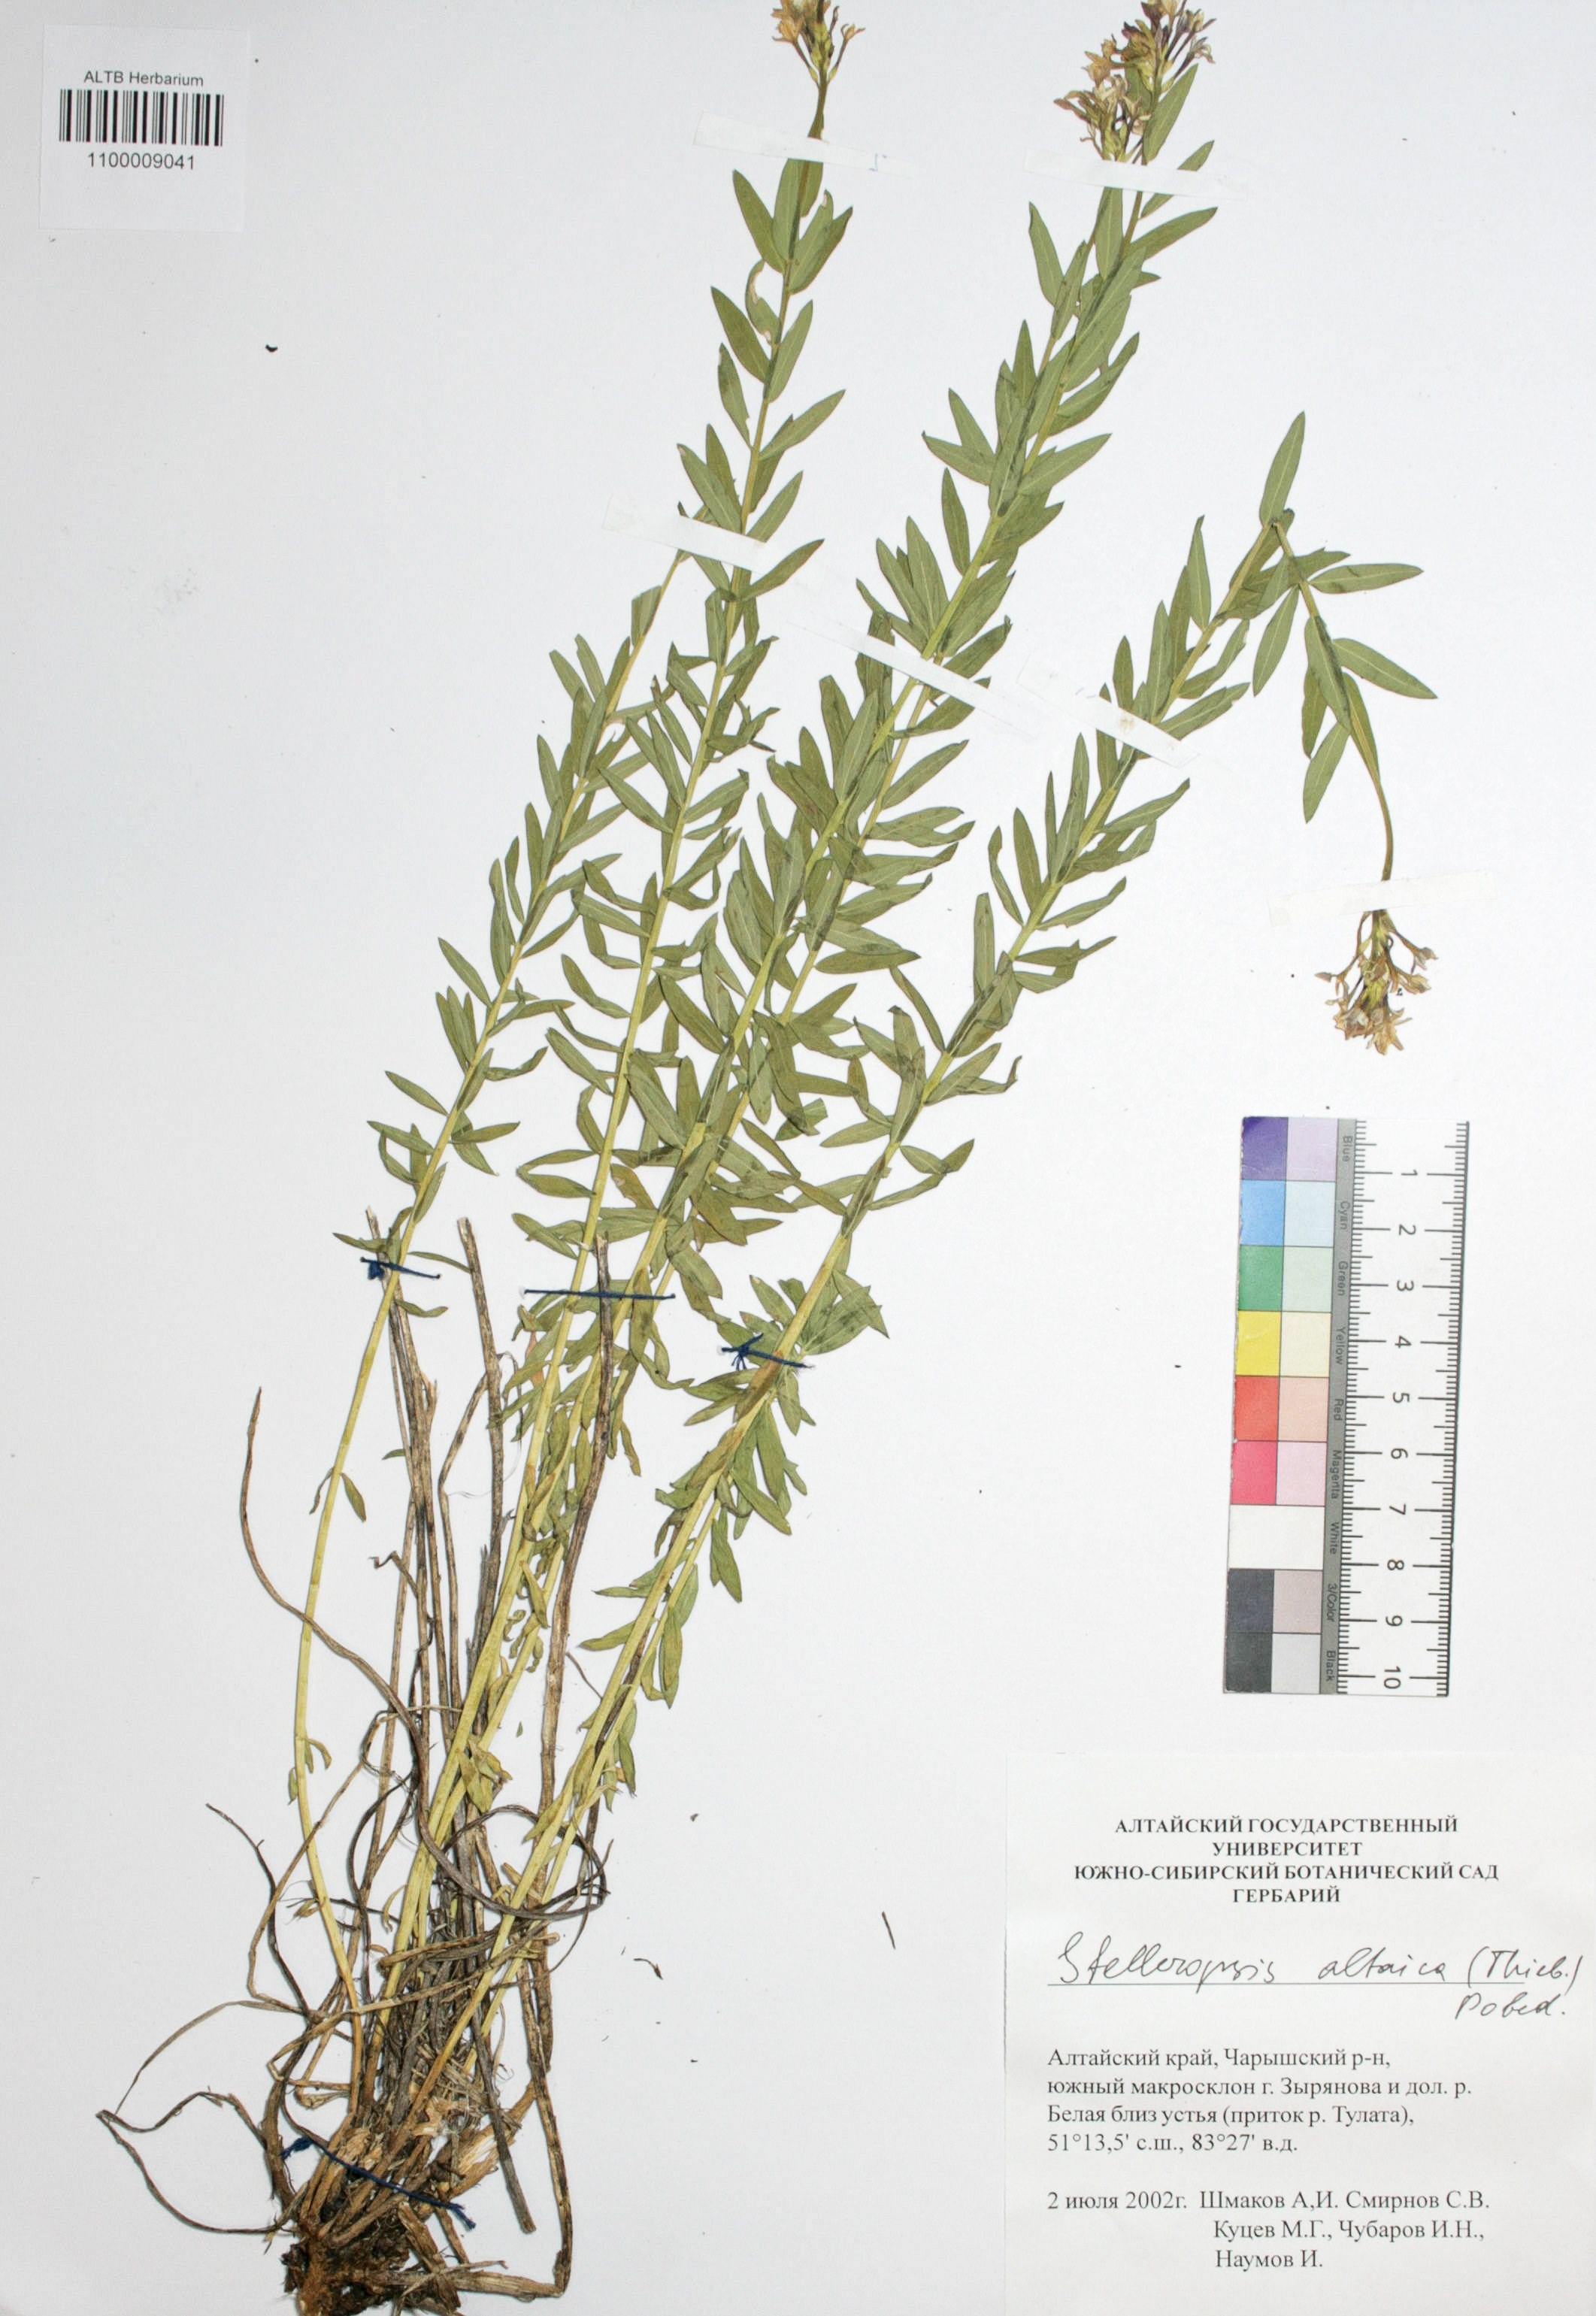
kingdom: Plantae
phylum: Tracheophyta
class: Magnoliopsida
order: Malvales
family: Thymelaeaceae
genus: Diarthron
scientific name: Diarthron altaicum
